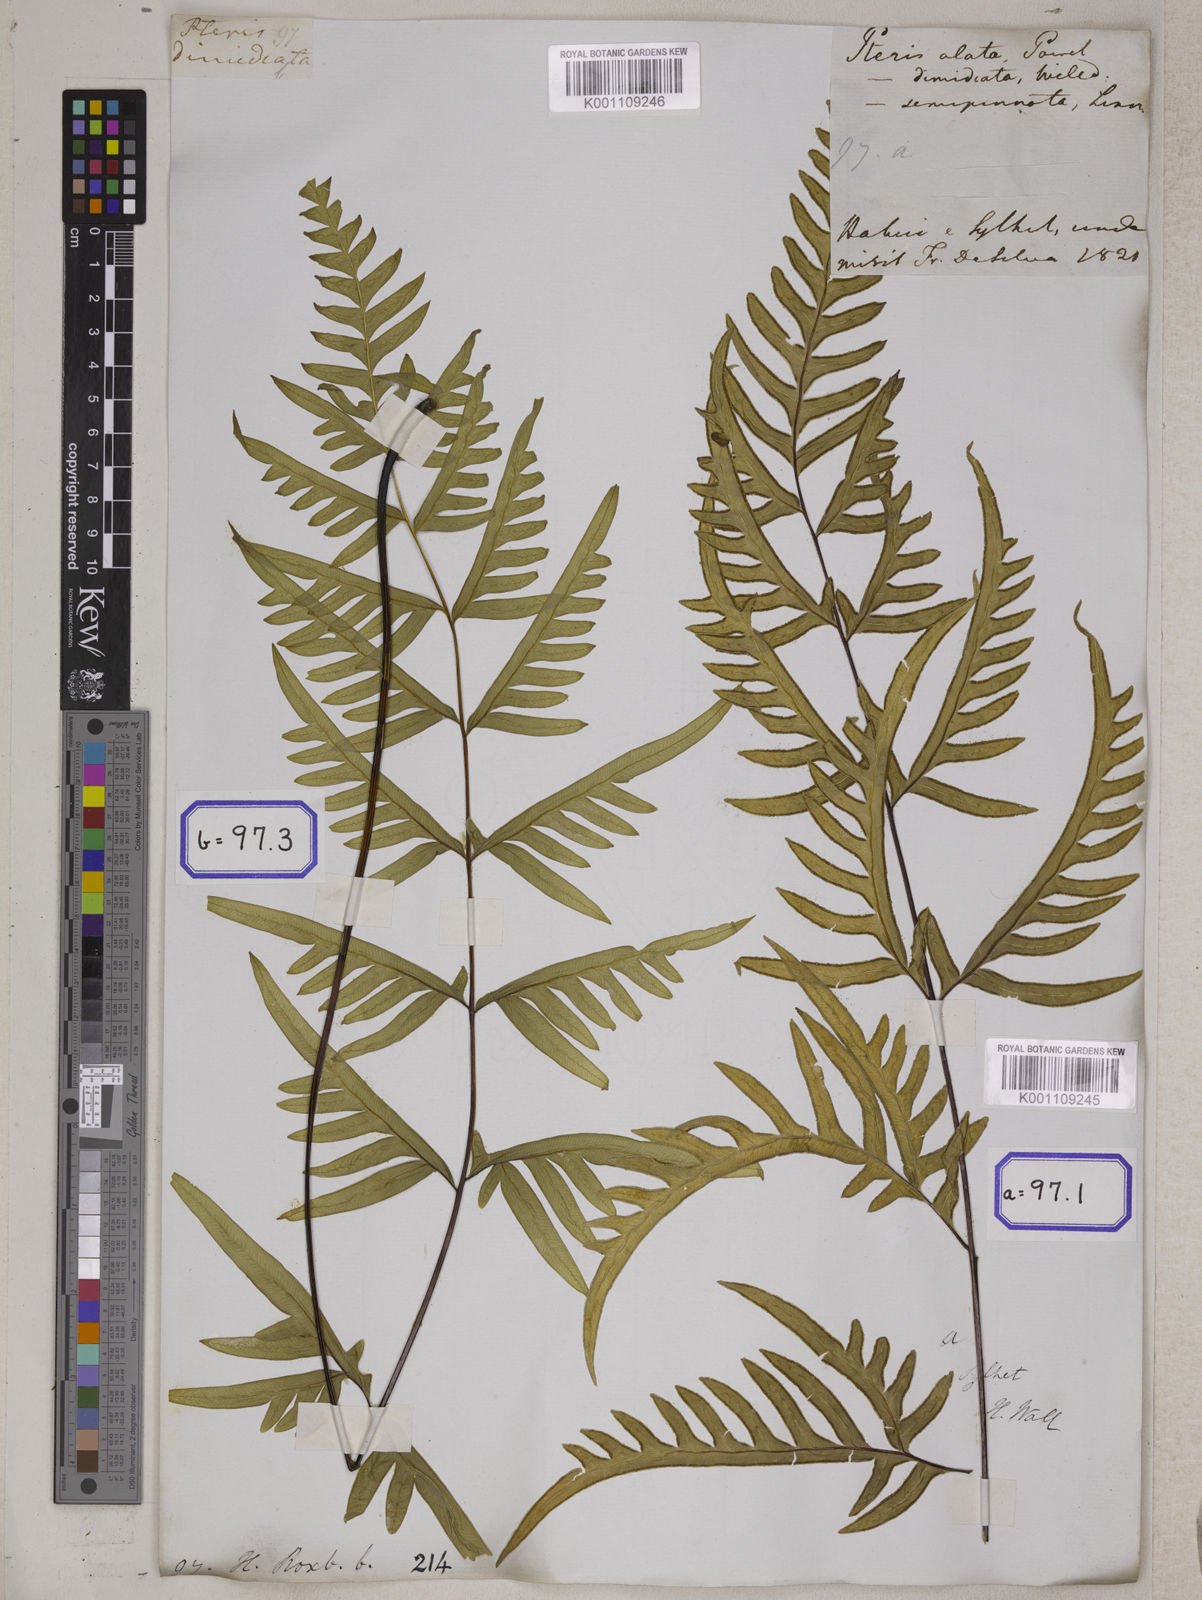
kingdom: Plantae
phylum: Tracheophyta
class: Polypodiopsida
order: Polypodiales
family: Pteridaceae
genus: Pteris
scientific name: Pteris semipinnata
